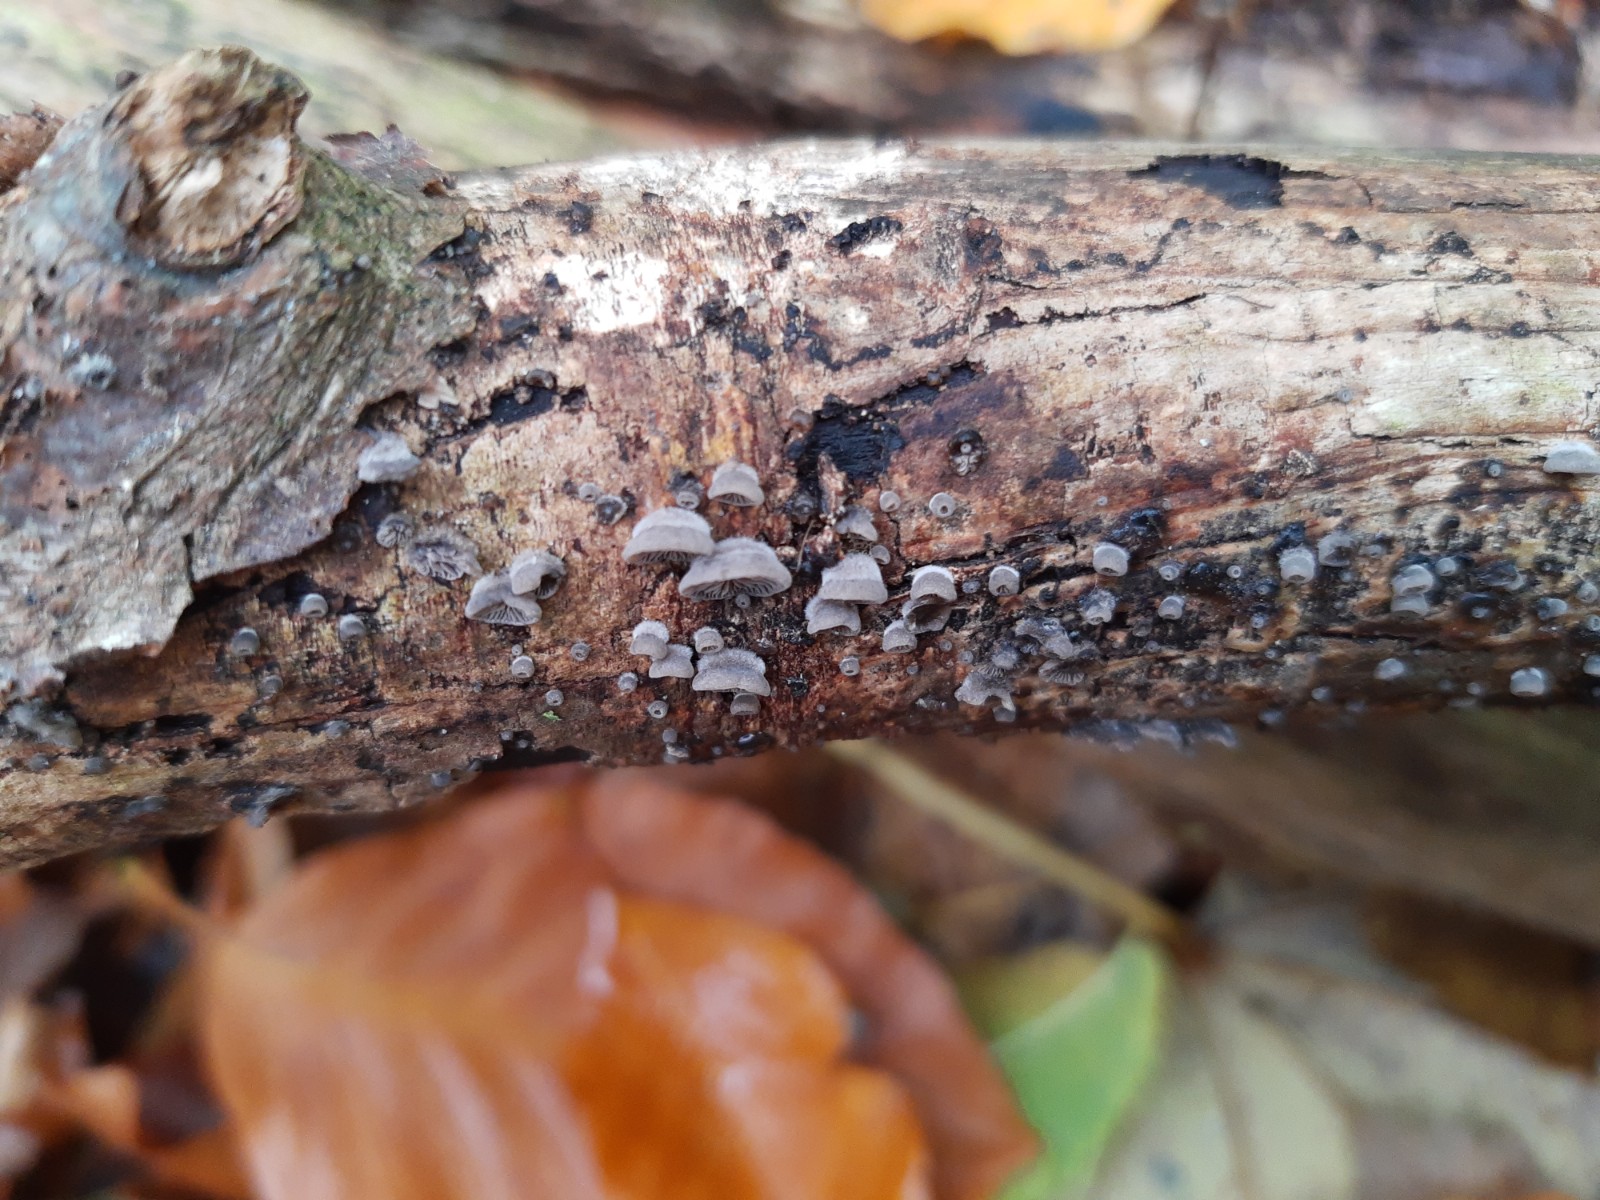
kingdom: Fungi
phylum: Basidiomycota
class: Agaricomycetes
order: Agaricales
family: Pleurotaceae
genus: Resupinatus
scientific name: Resupinatus applicatus
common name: lysfiltet barkhat
